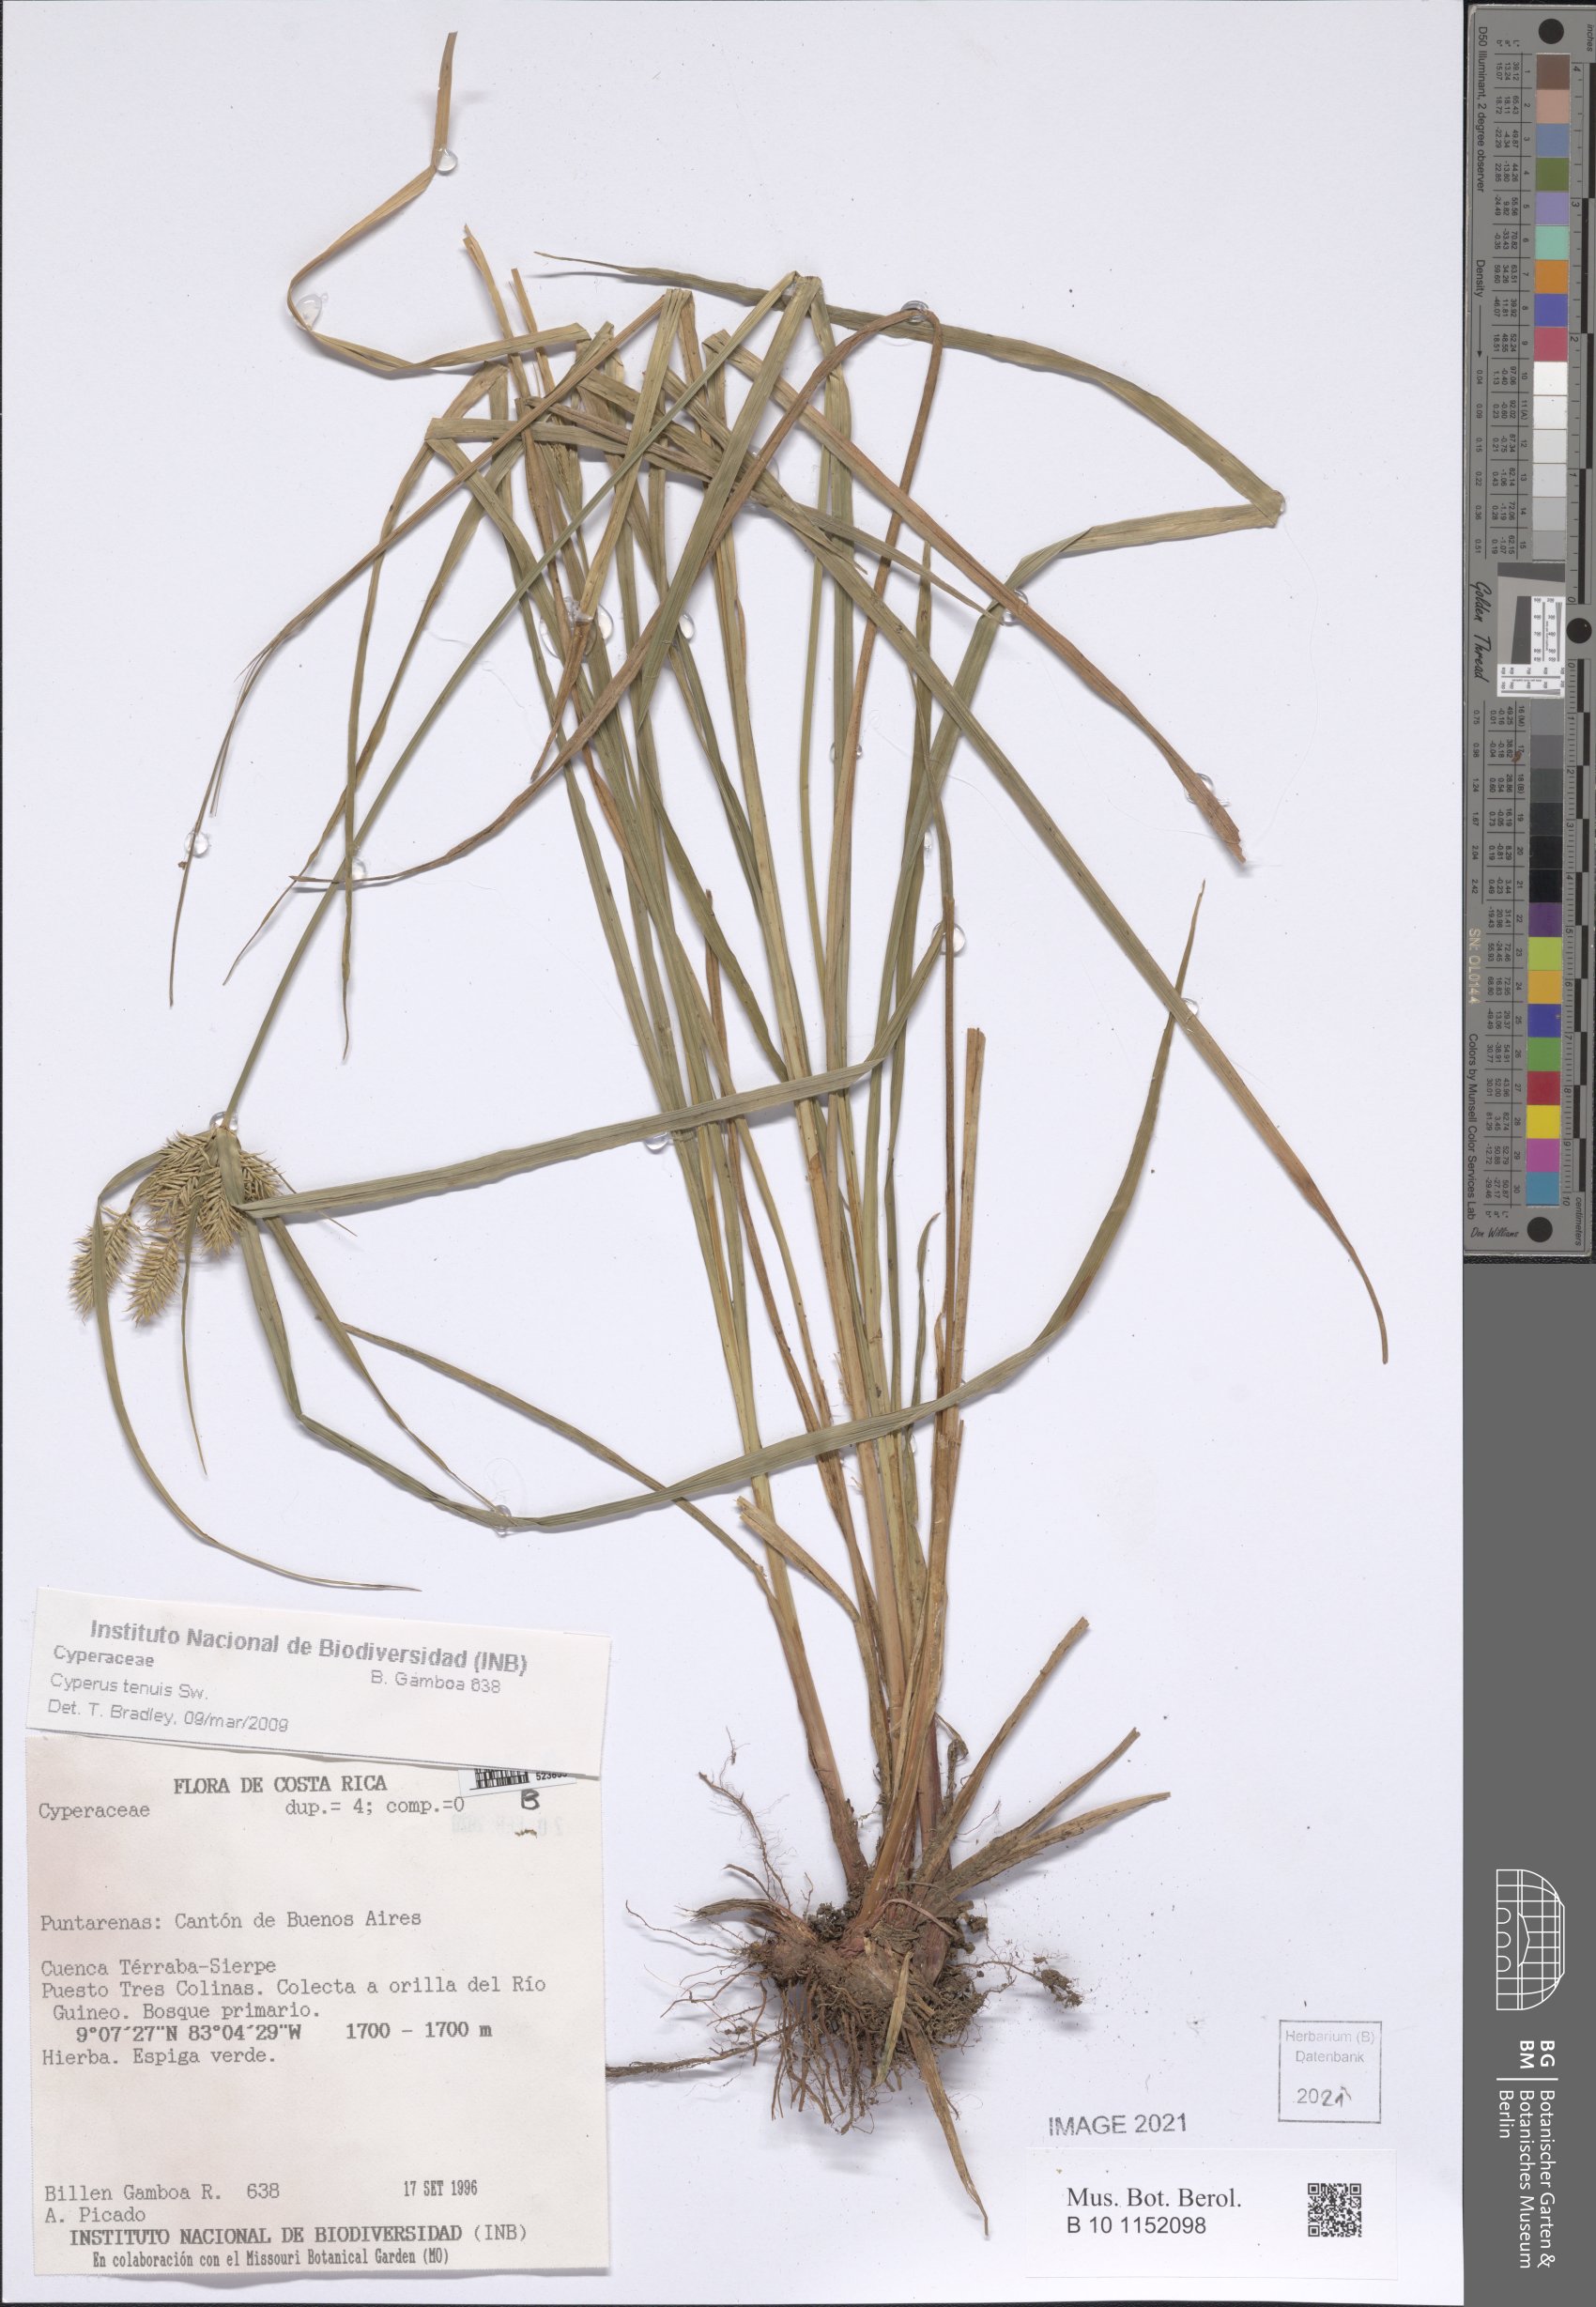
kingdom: Plantae
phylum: Tracheophyta
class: Liliopsida
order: Poales
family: Cyperaceae
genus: Cyperus
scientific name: Cyperus tenuis
